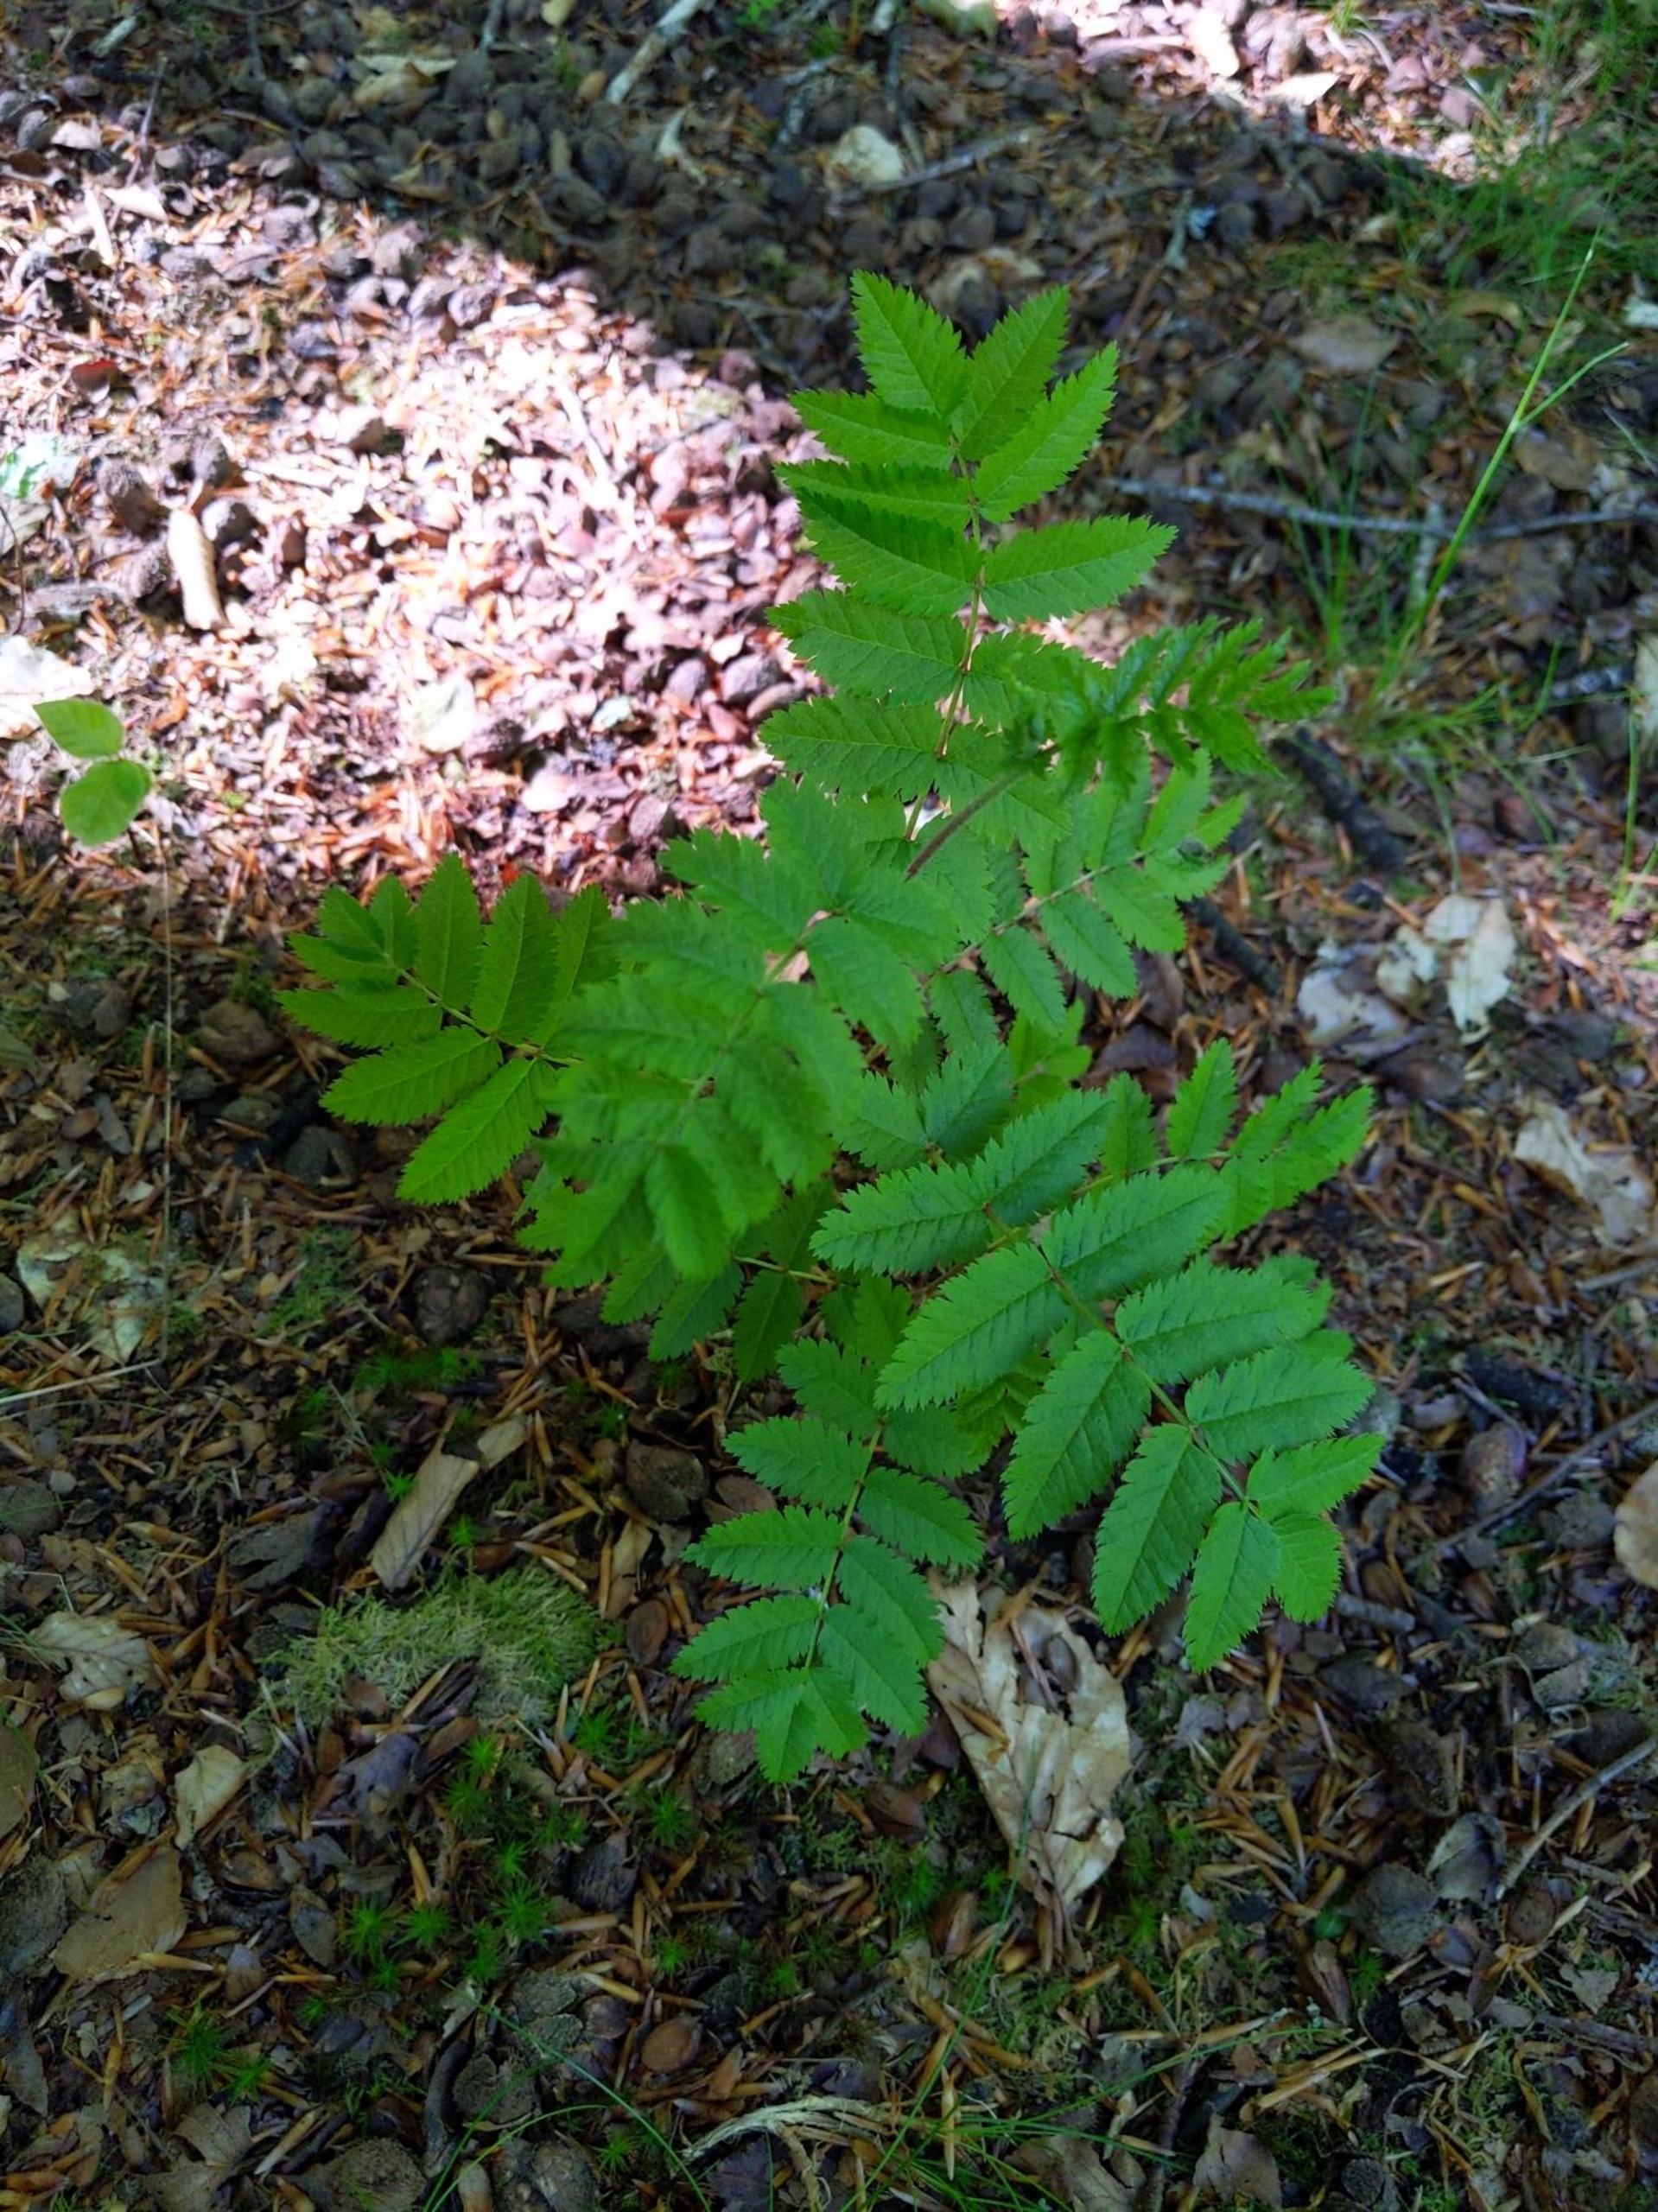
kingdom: Plantae
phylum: Tracheophyta
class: Magnoliopsida
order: Rosales
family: Rosaceae
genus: Sorbus
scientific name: Sorbus aucuparia
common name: Almindelig røn
